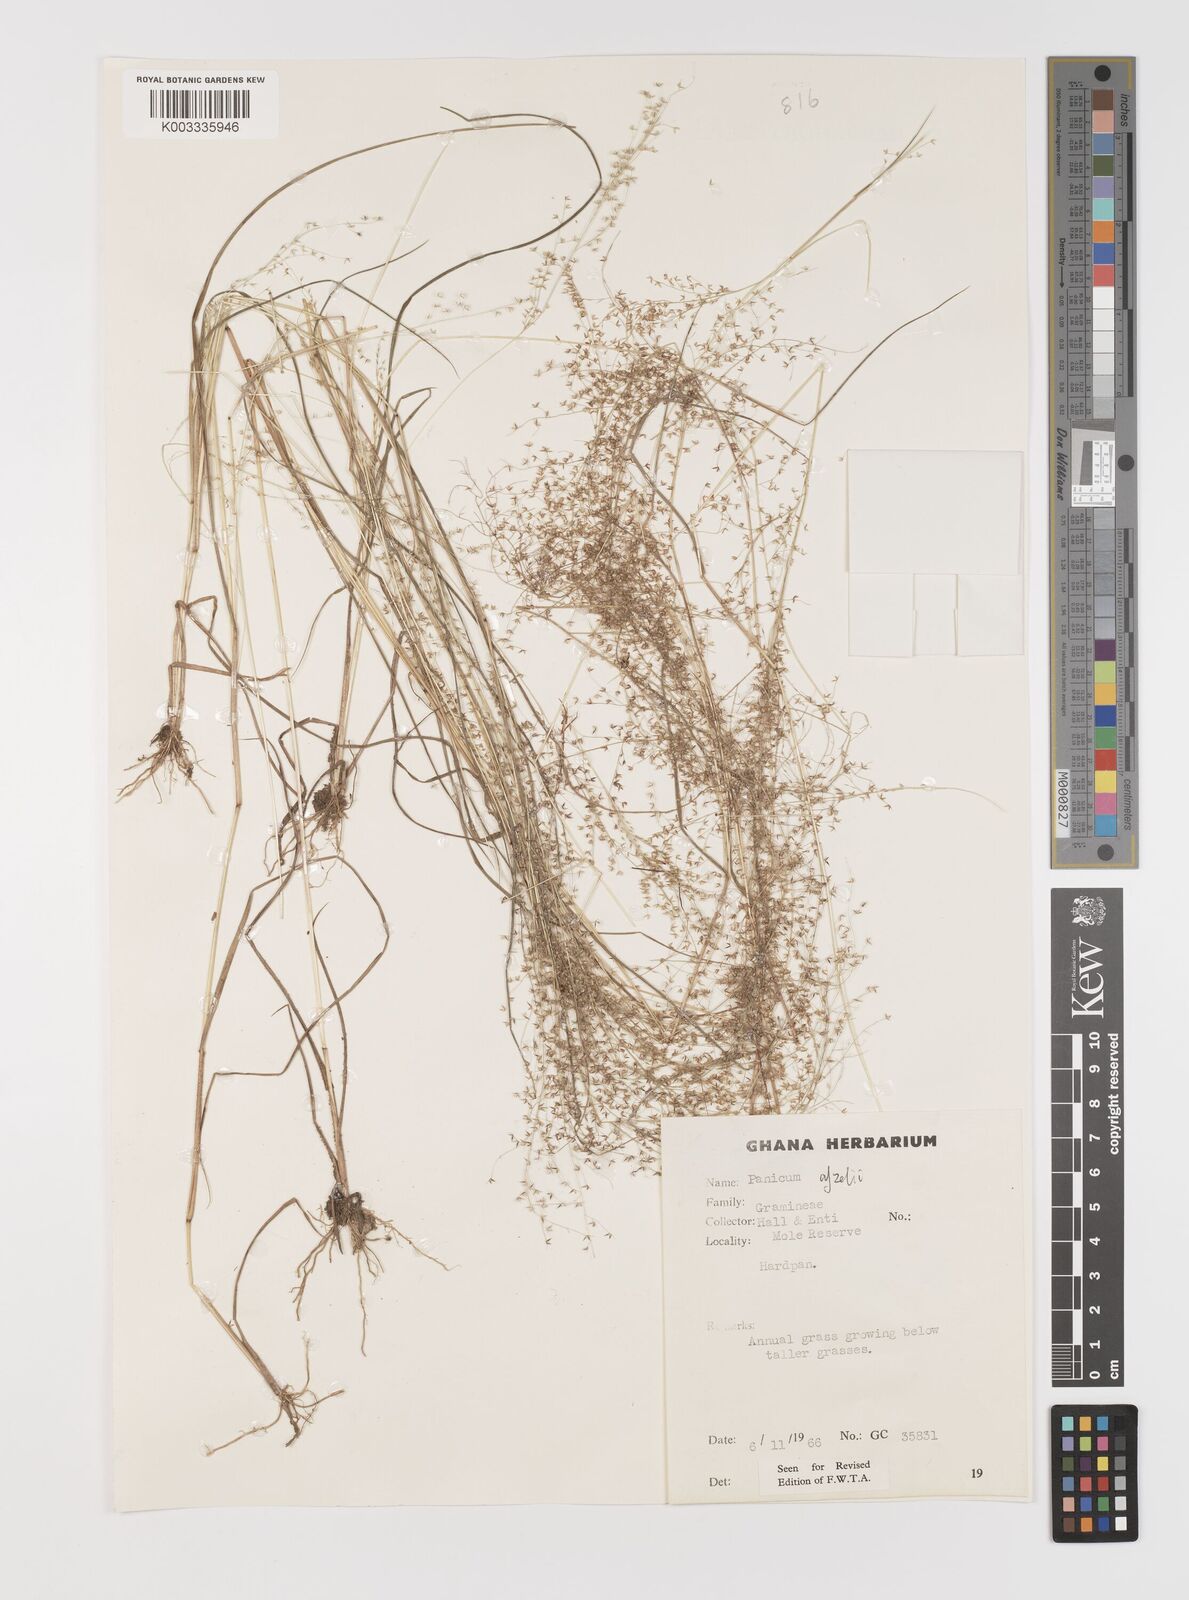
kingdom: Plantae
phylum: Tracheophyta
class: Liliopsida
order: Poales
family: Poaceae
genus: Panicum
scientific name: Panicum afzelii
